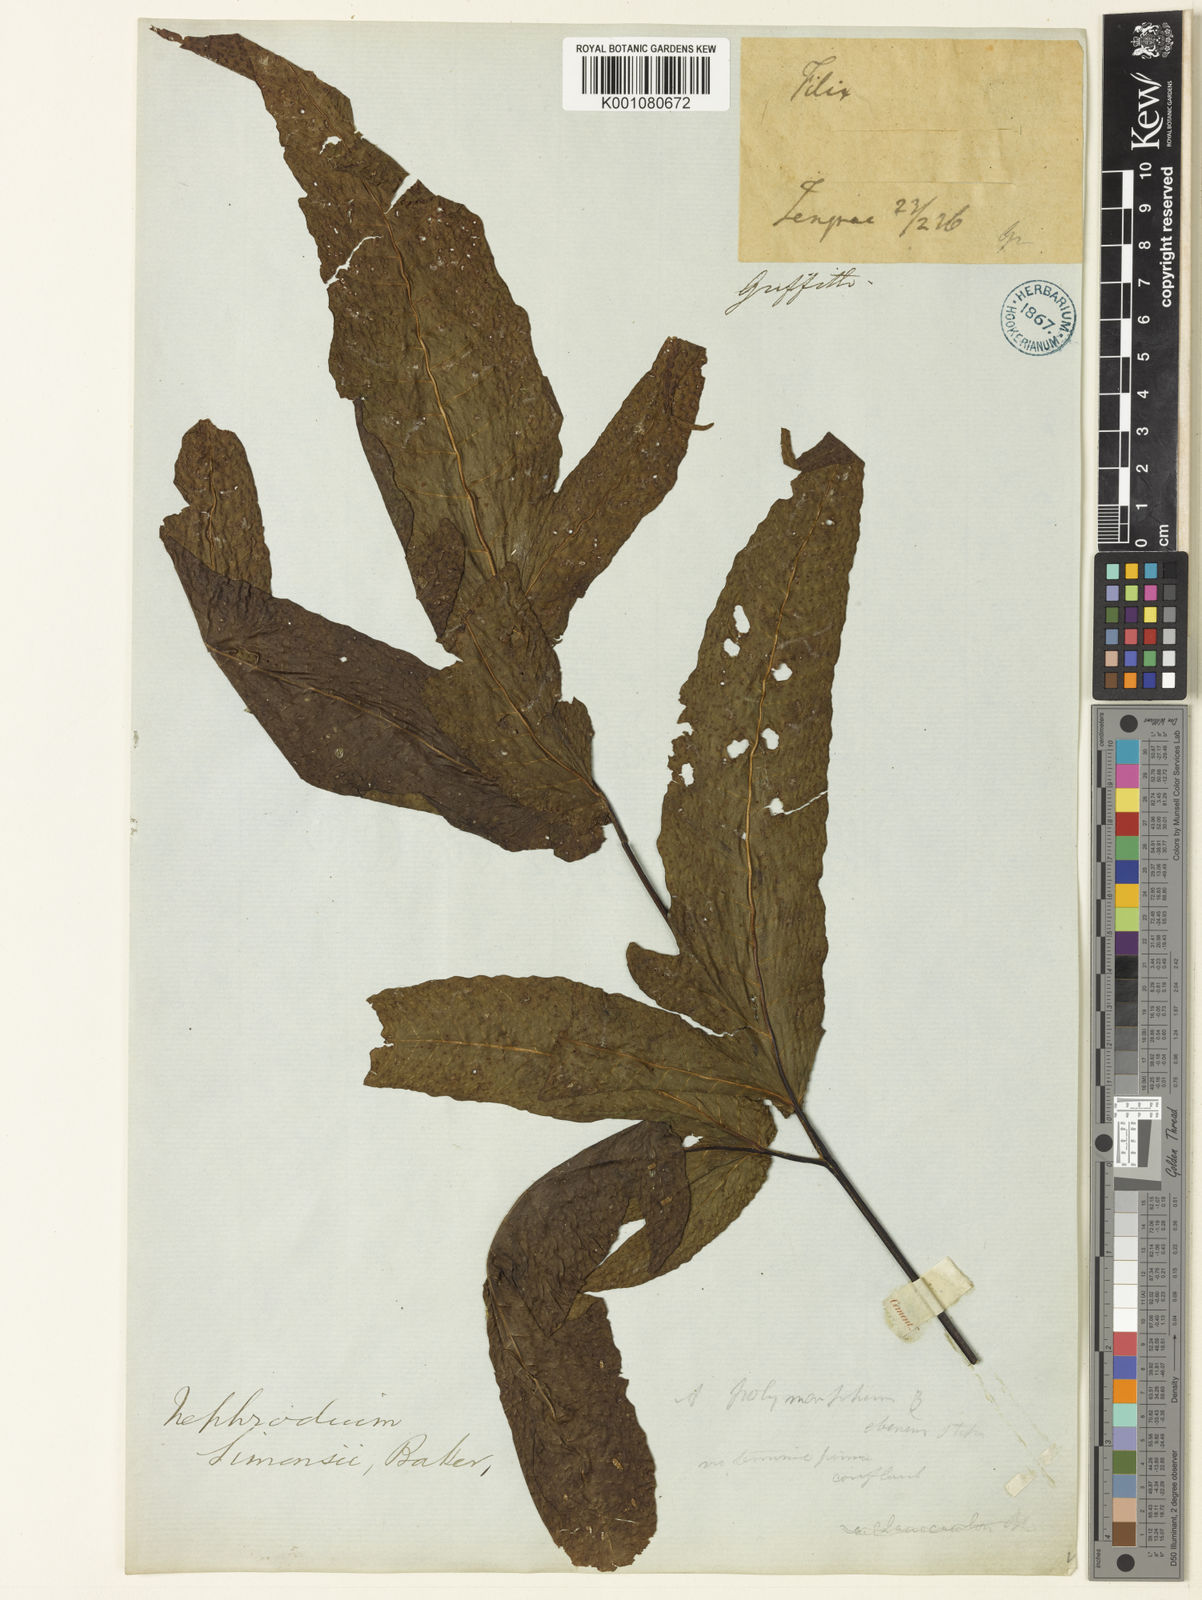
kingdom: Plantae
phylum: Tracheophyta
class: Polypodiopsida
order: Polypodiales
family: Tectariaceae
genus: Tectaria
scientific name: Tectaria simonsii
